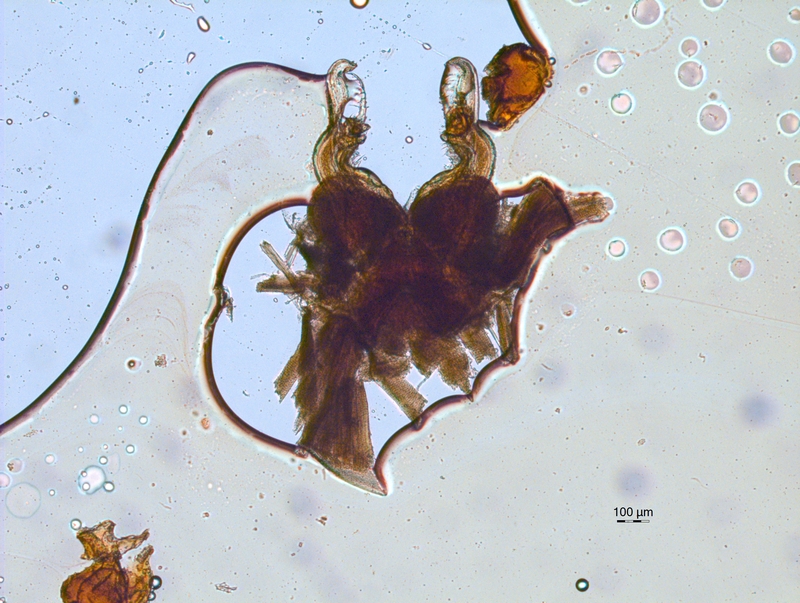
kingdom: Animalia
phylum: Arthropoda
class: Diplopoda
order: Chordeumatida
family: Chordeumatidae
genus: Mycogona
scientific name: Mycogona germanica
